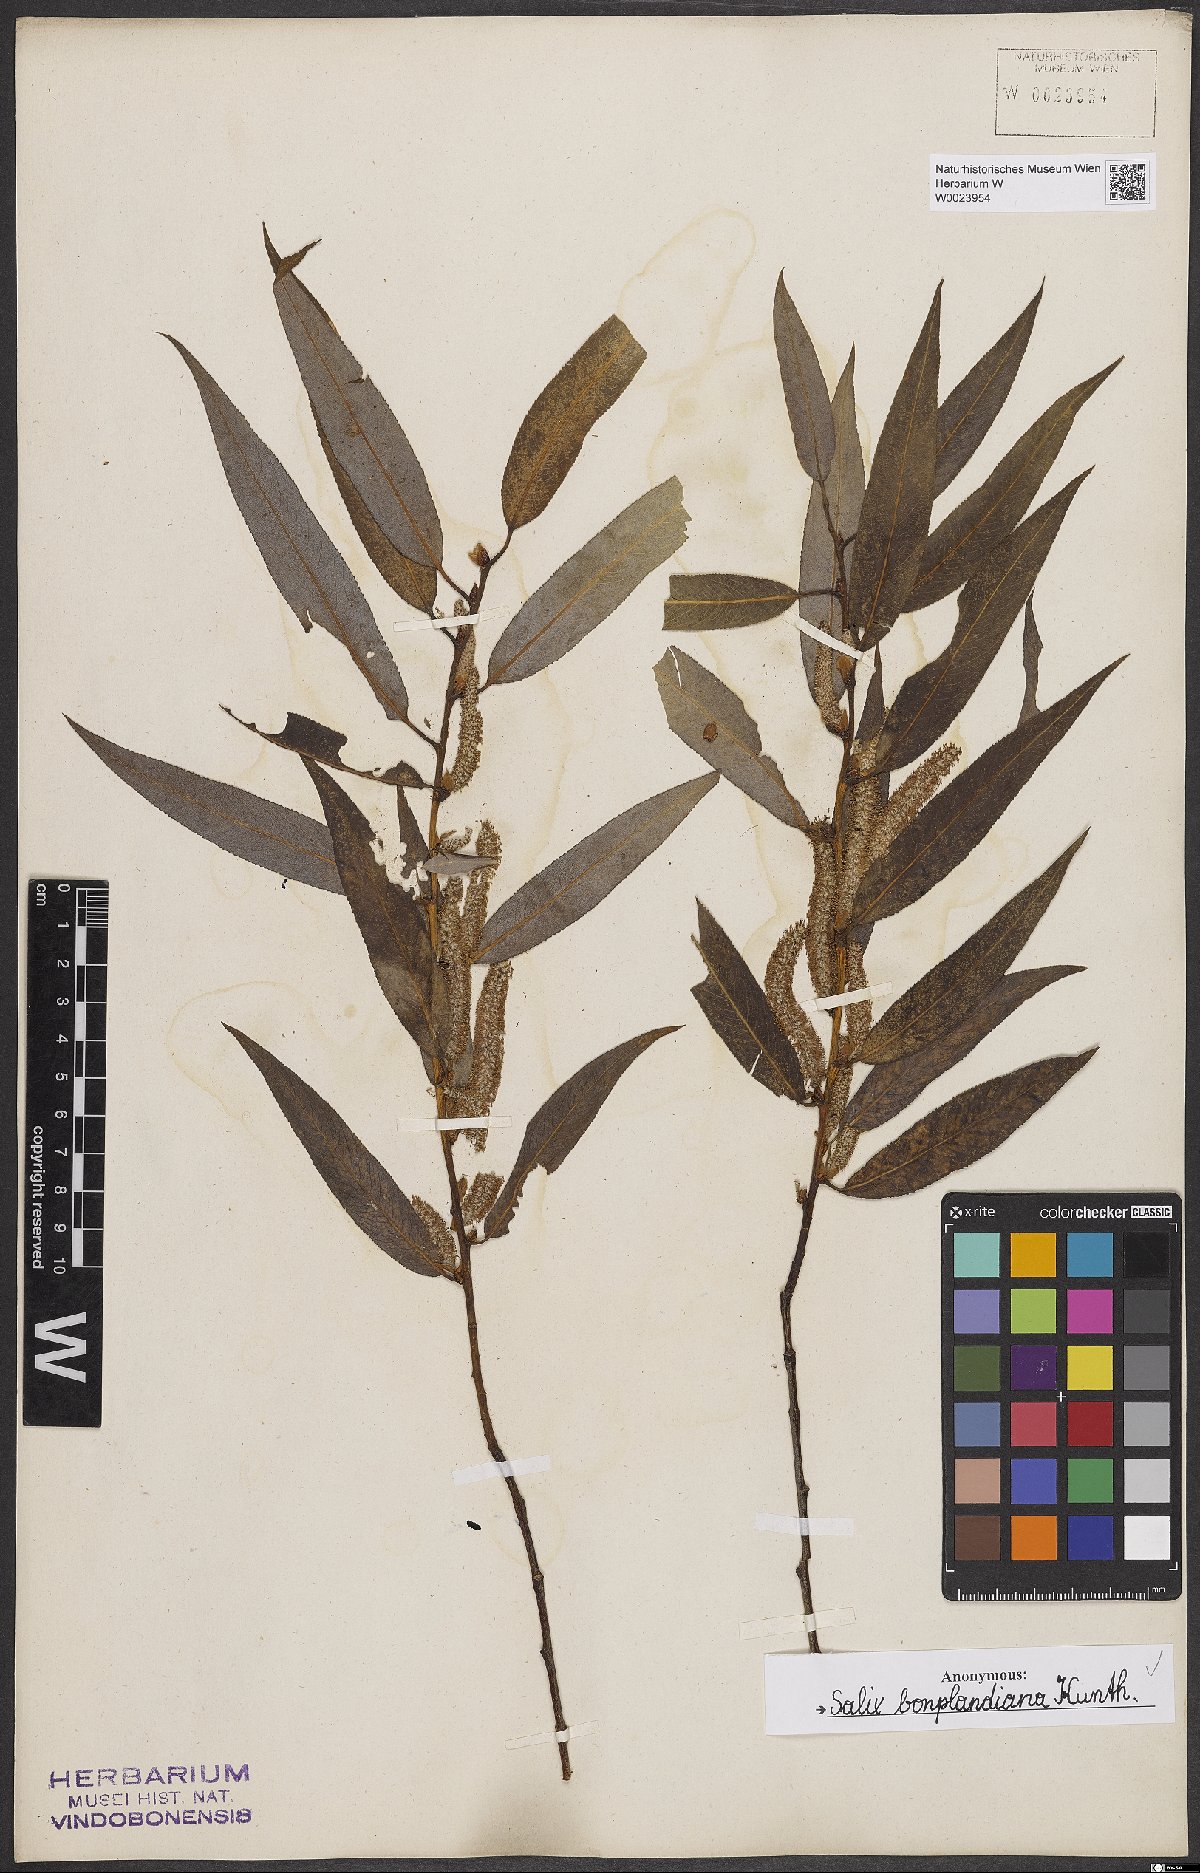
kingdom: Plantae
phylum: Tracheophyta
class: Magnoliopsida
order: Malpighiales
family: Salicaceae
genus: Salix
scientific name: Salix bonplandiana
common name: Bonpland’s willow
